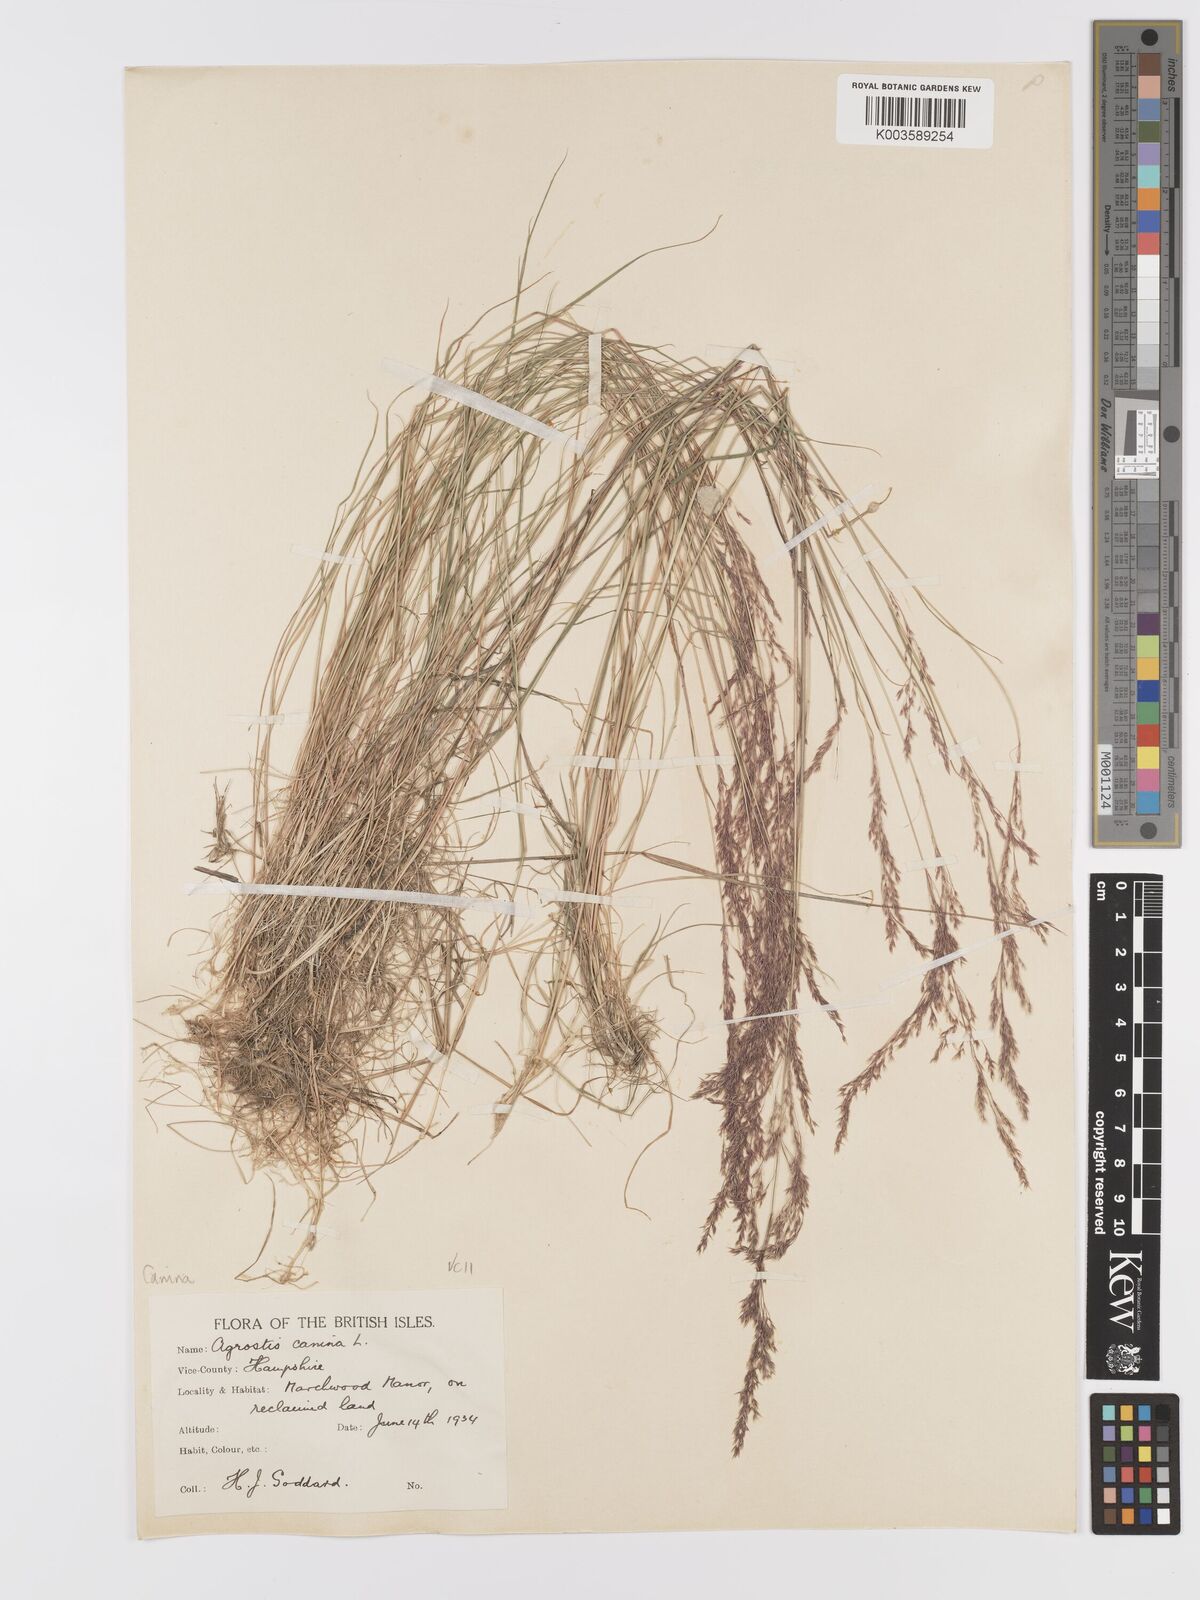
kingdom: Plantae
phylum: Tracheophyta
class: Liliopsida
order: Poales
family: Poaceae
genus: Agrostis
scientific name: Agrostis canina
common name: Velvet bent
